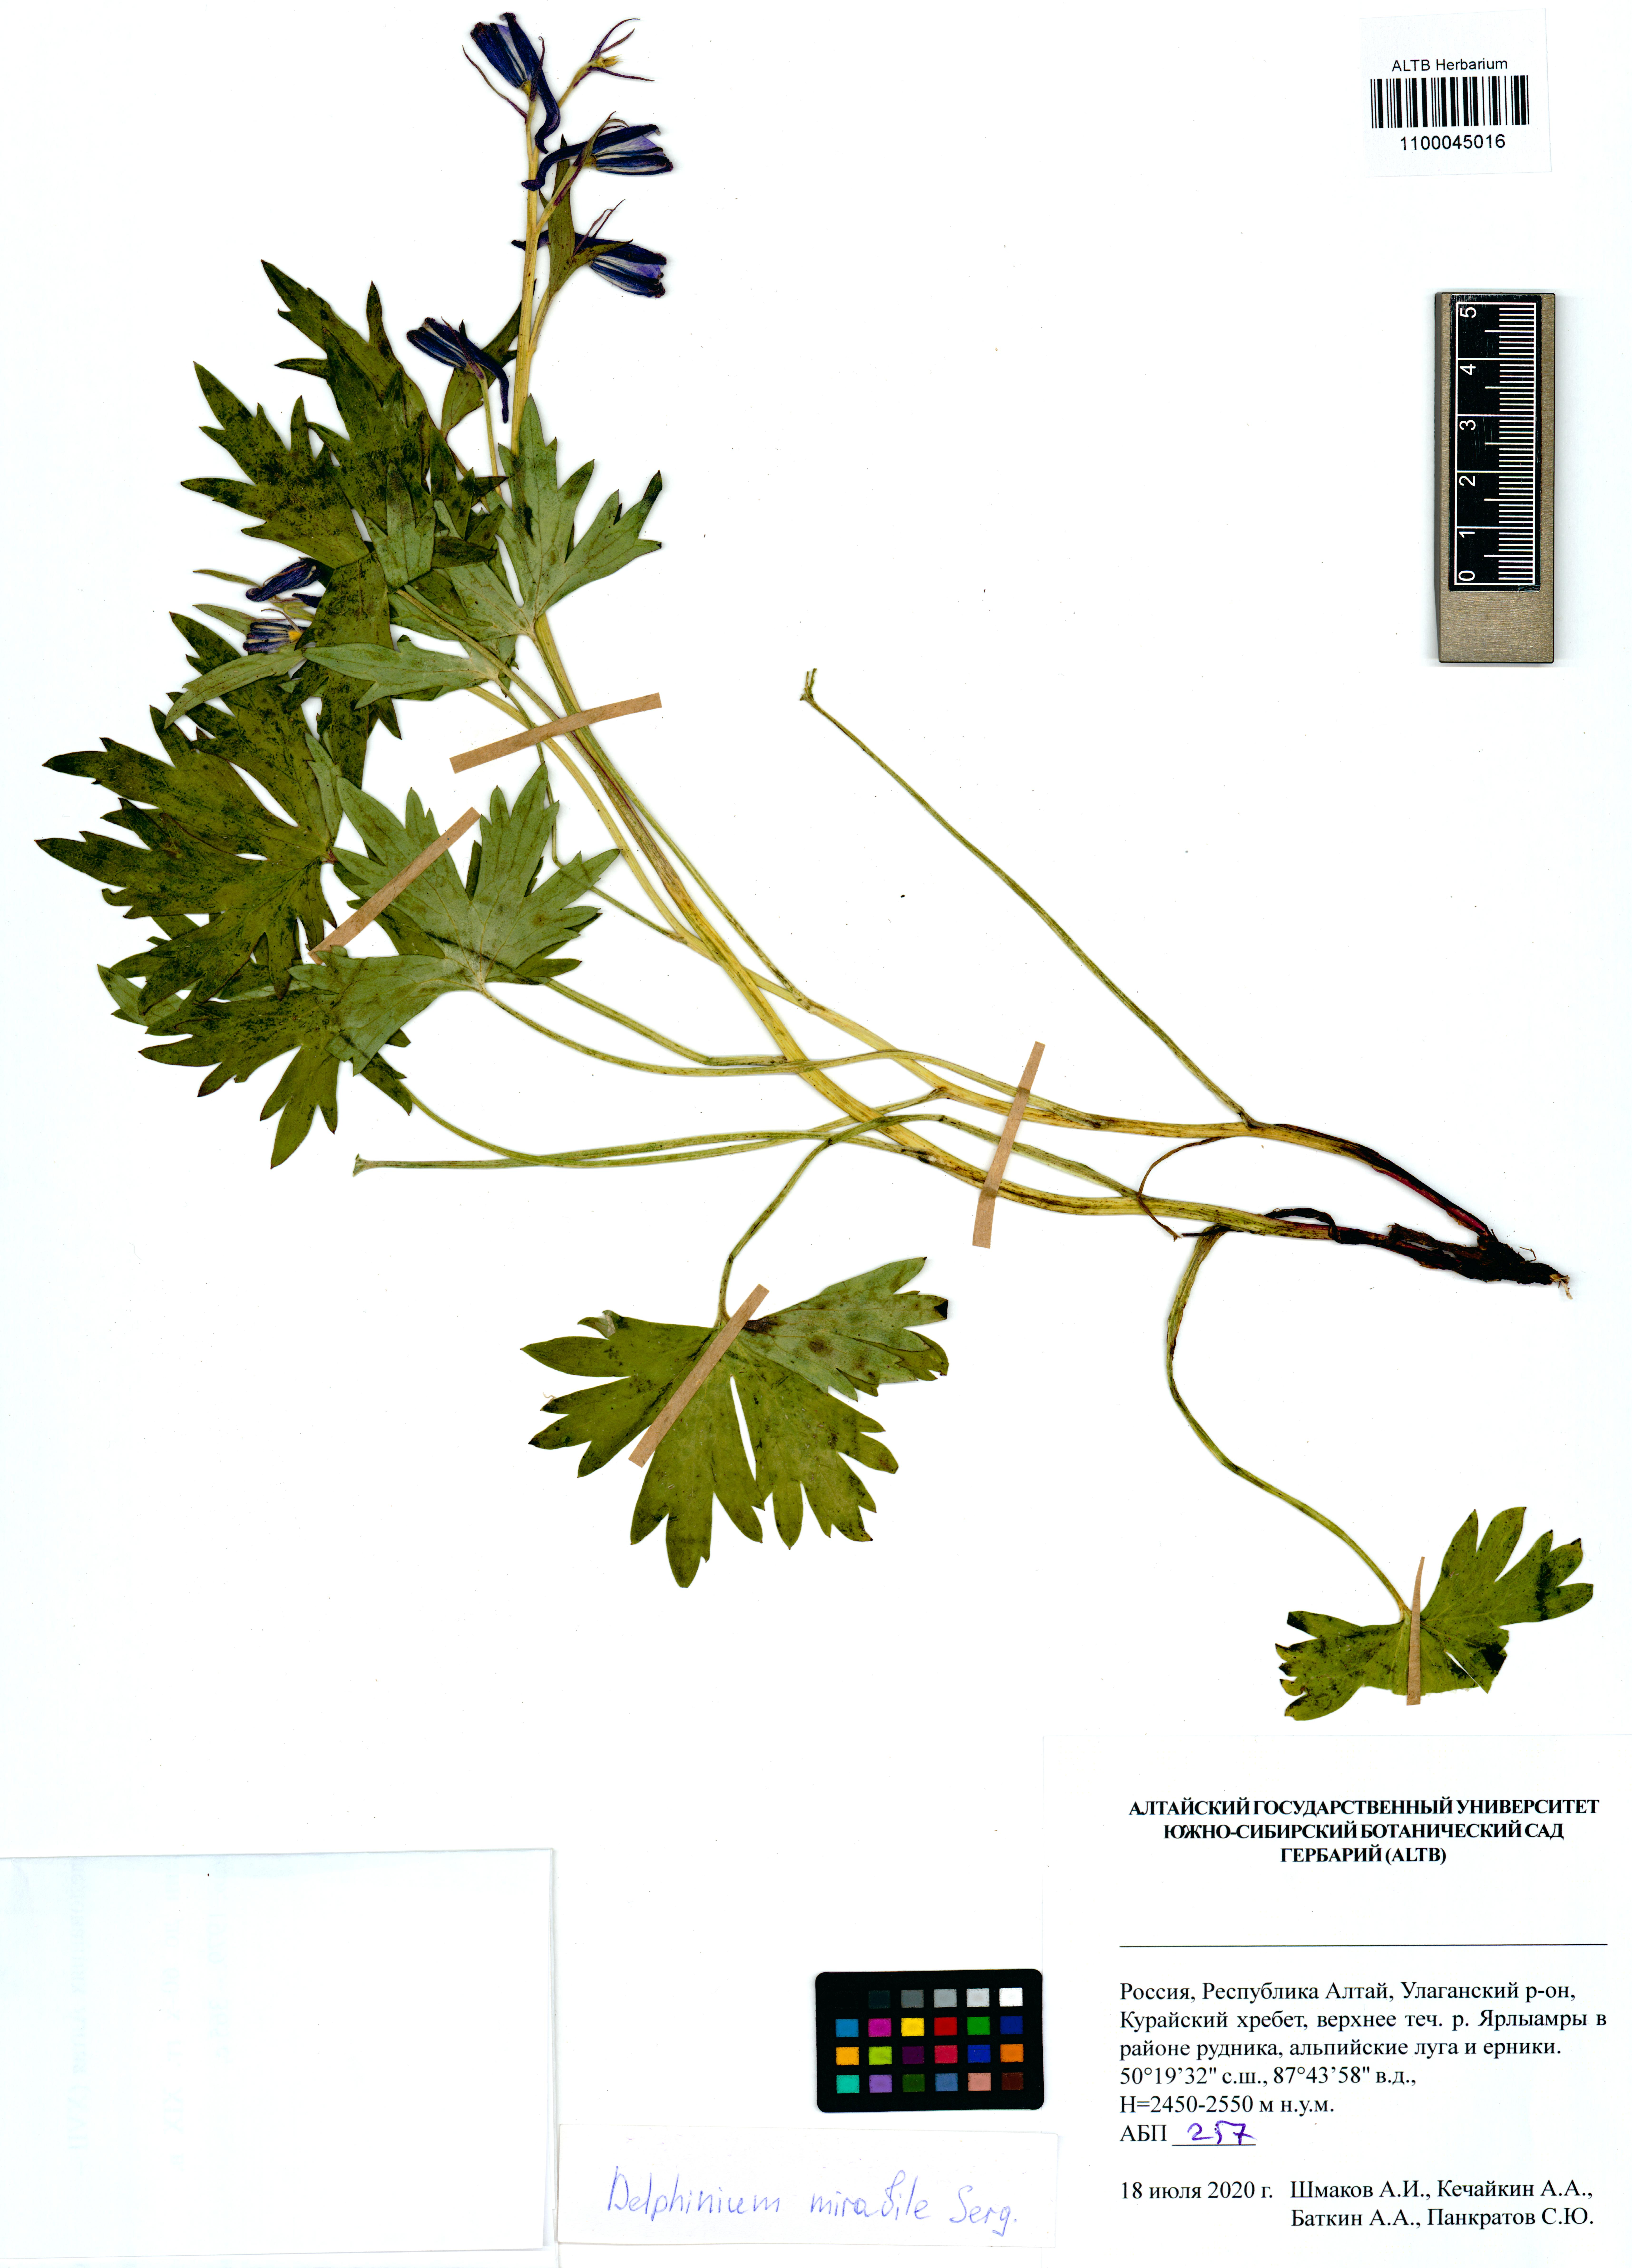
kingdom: Plantae
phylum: Tracheophyta
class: Magnoliopsida
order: Ranunculales
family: Ranunculaceae
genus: Delphinium
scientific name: Delphinium mirabile
